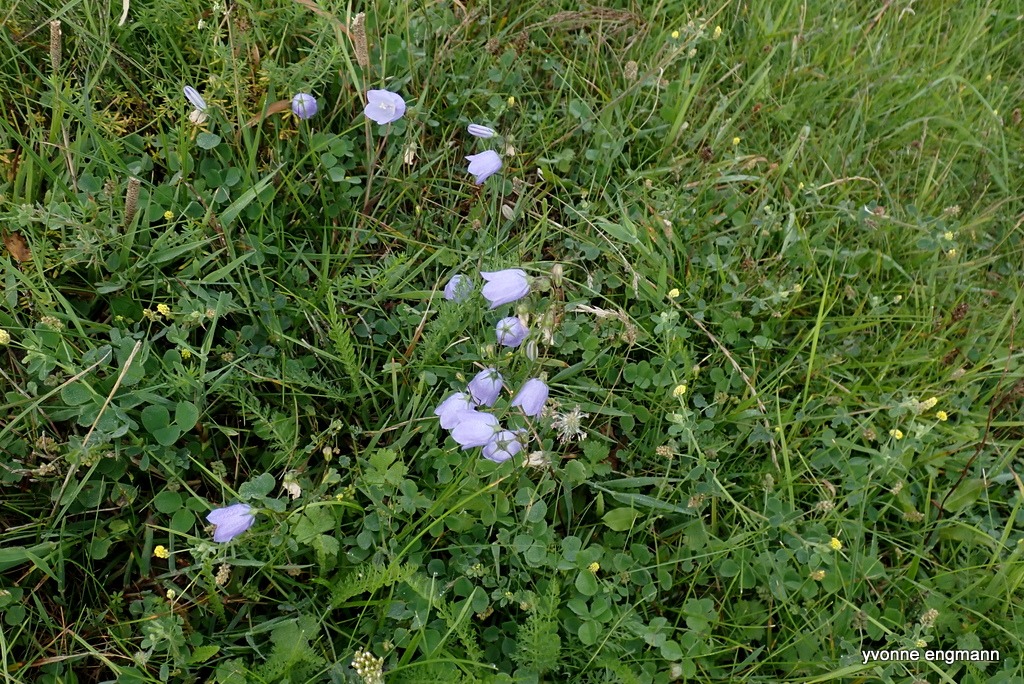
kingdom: Plantae
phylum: Tracheophyta
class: Magnoliopsida
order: Asterales
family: Campanulaceae
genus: Campanula
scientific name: Campanula rotundifolia
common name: Liden klokke
